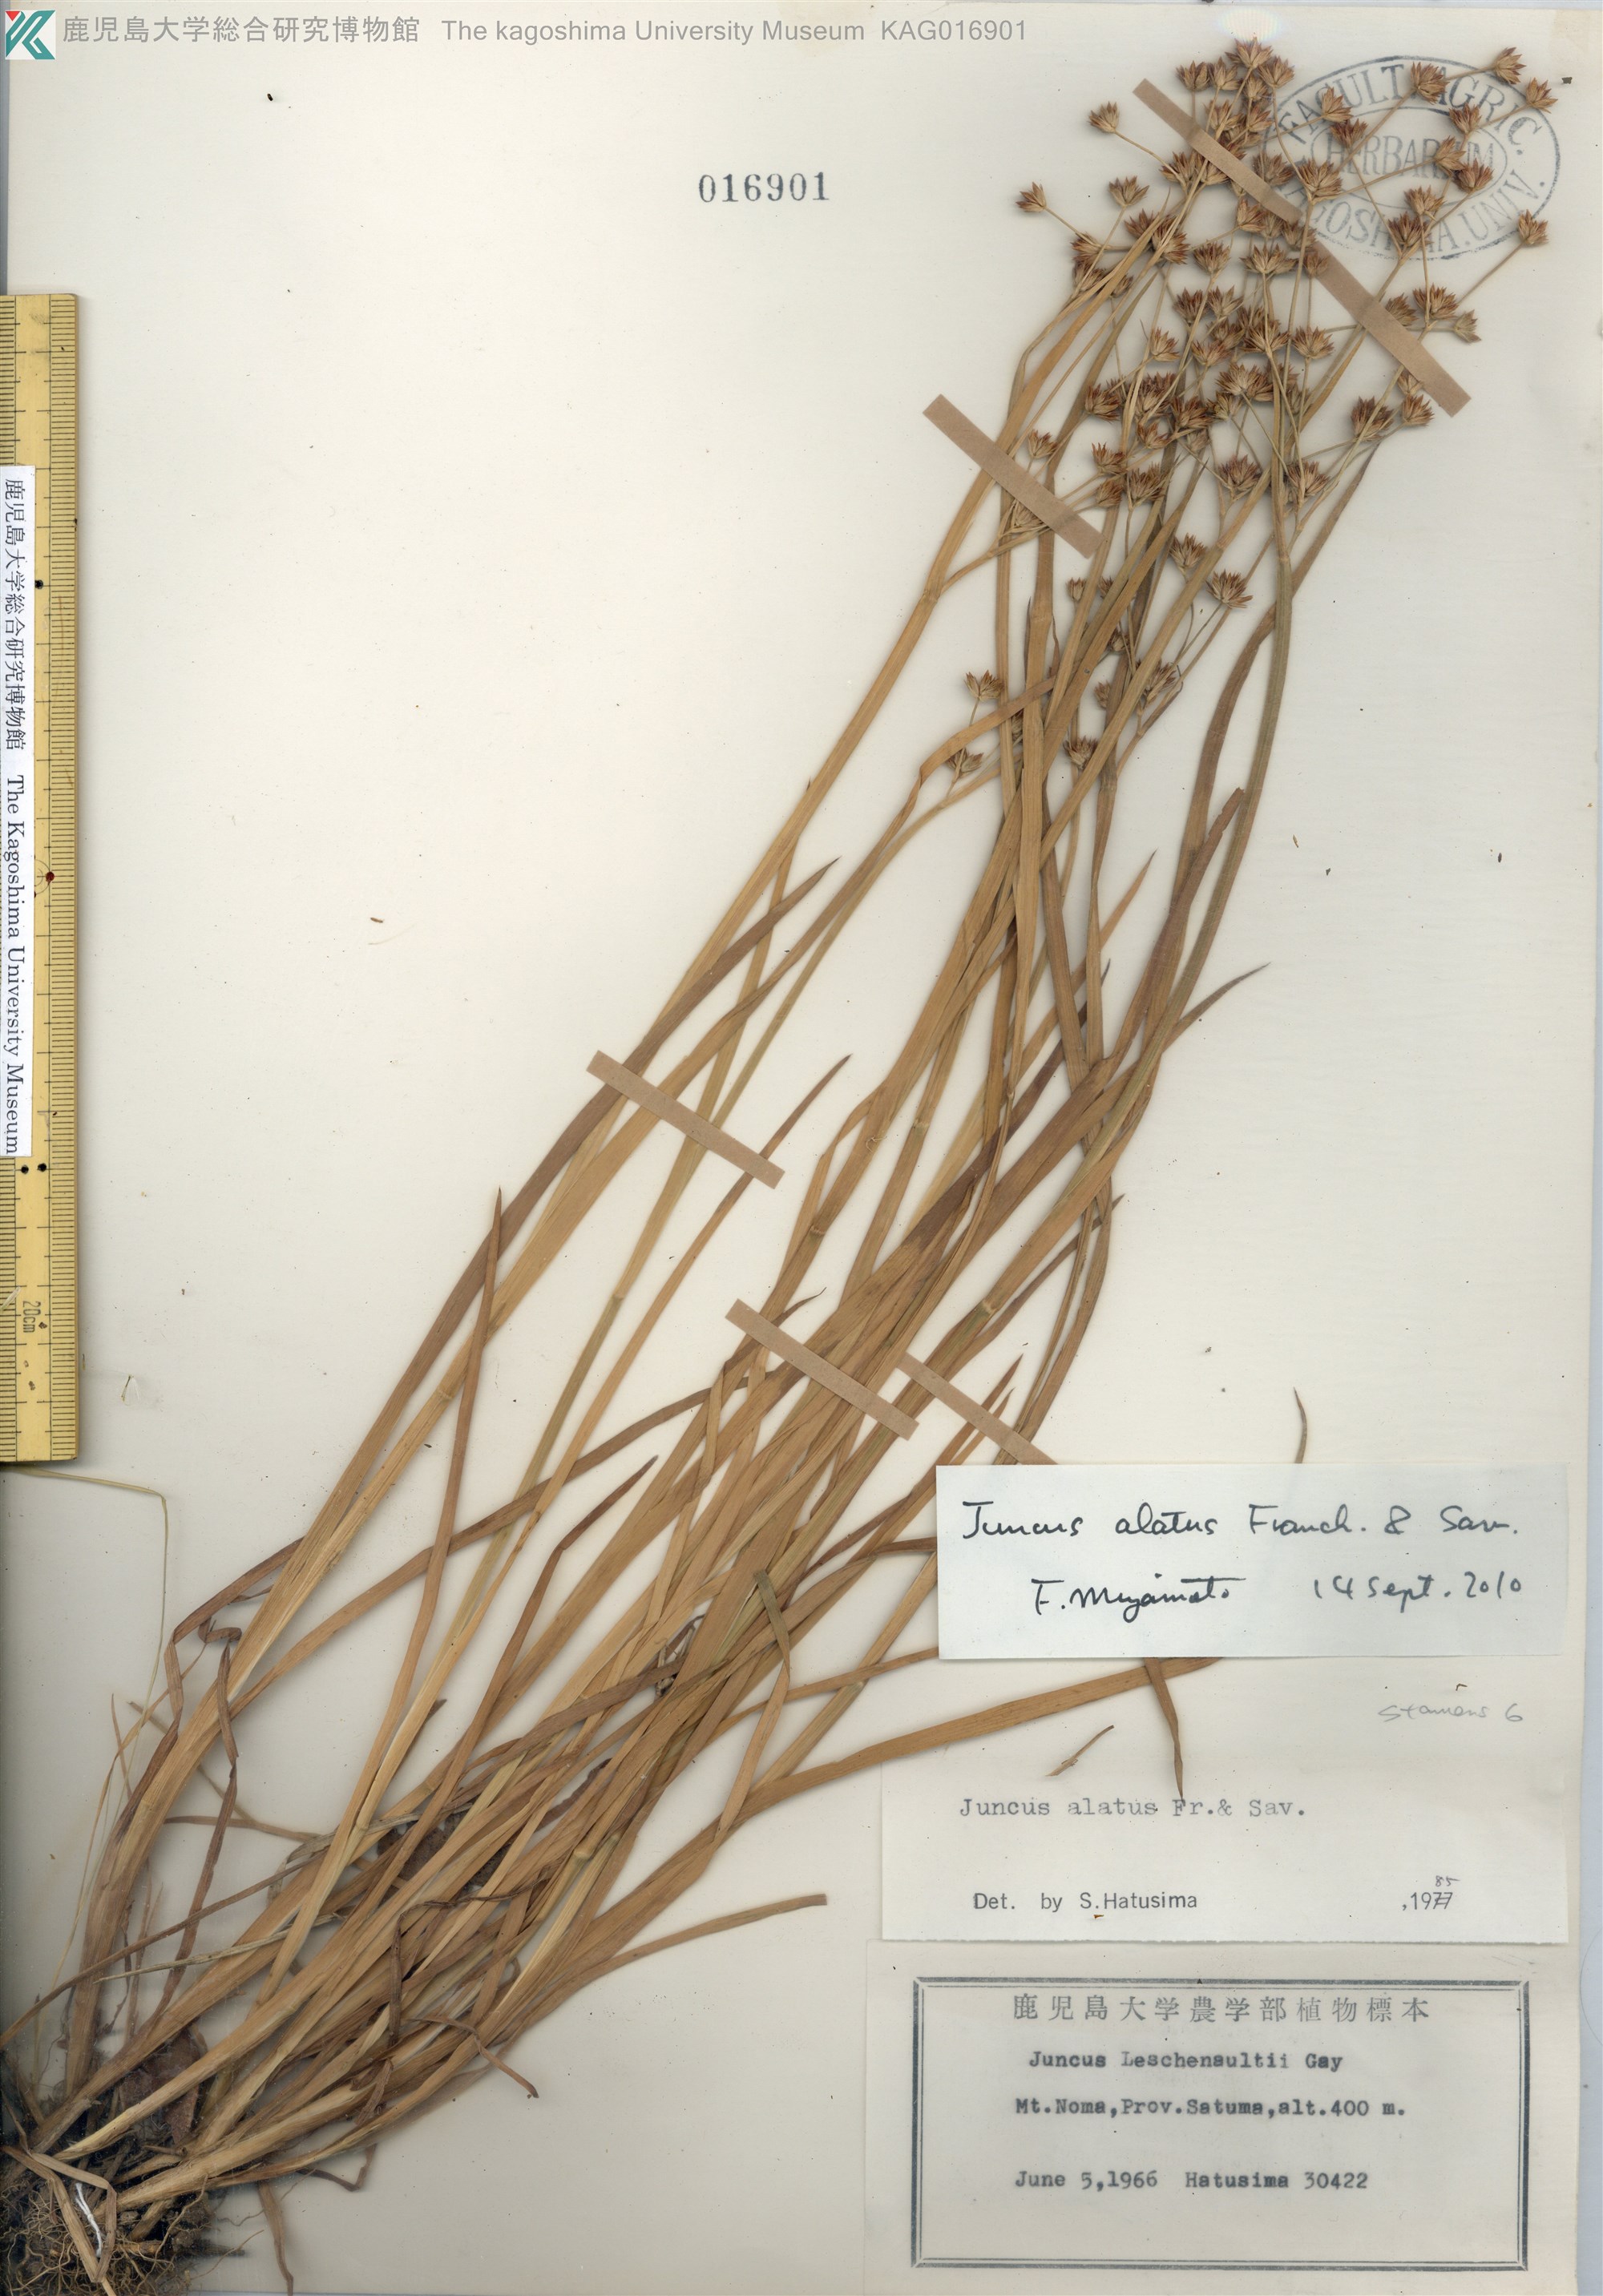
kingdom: Plantae
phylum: Tracheophyta
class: Liliopsida
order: Poales
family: Juncaceae
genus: Juncus
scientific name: Juncus alatus
